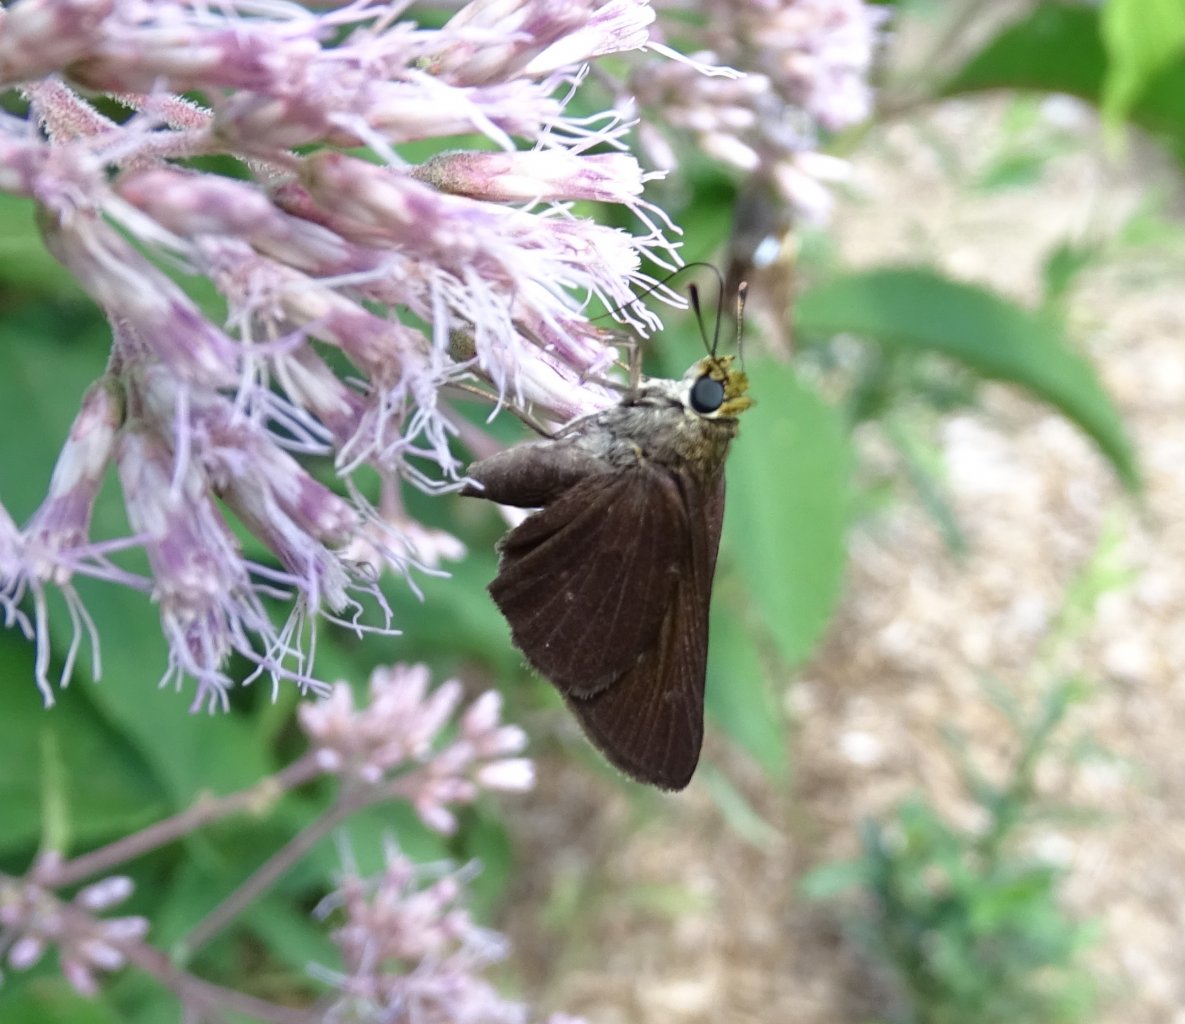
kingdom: Animalia
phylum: Arthropoda
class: Insecta
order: Lepidoptera
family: Hesperiidae
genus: Euphyes
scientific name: Euphyes vestris
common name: Dun Skipper
